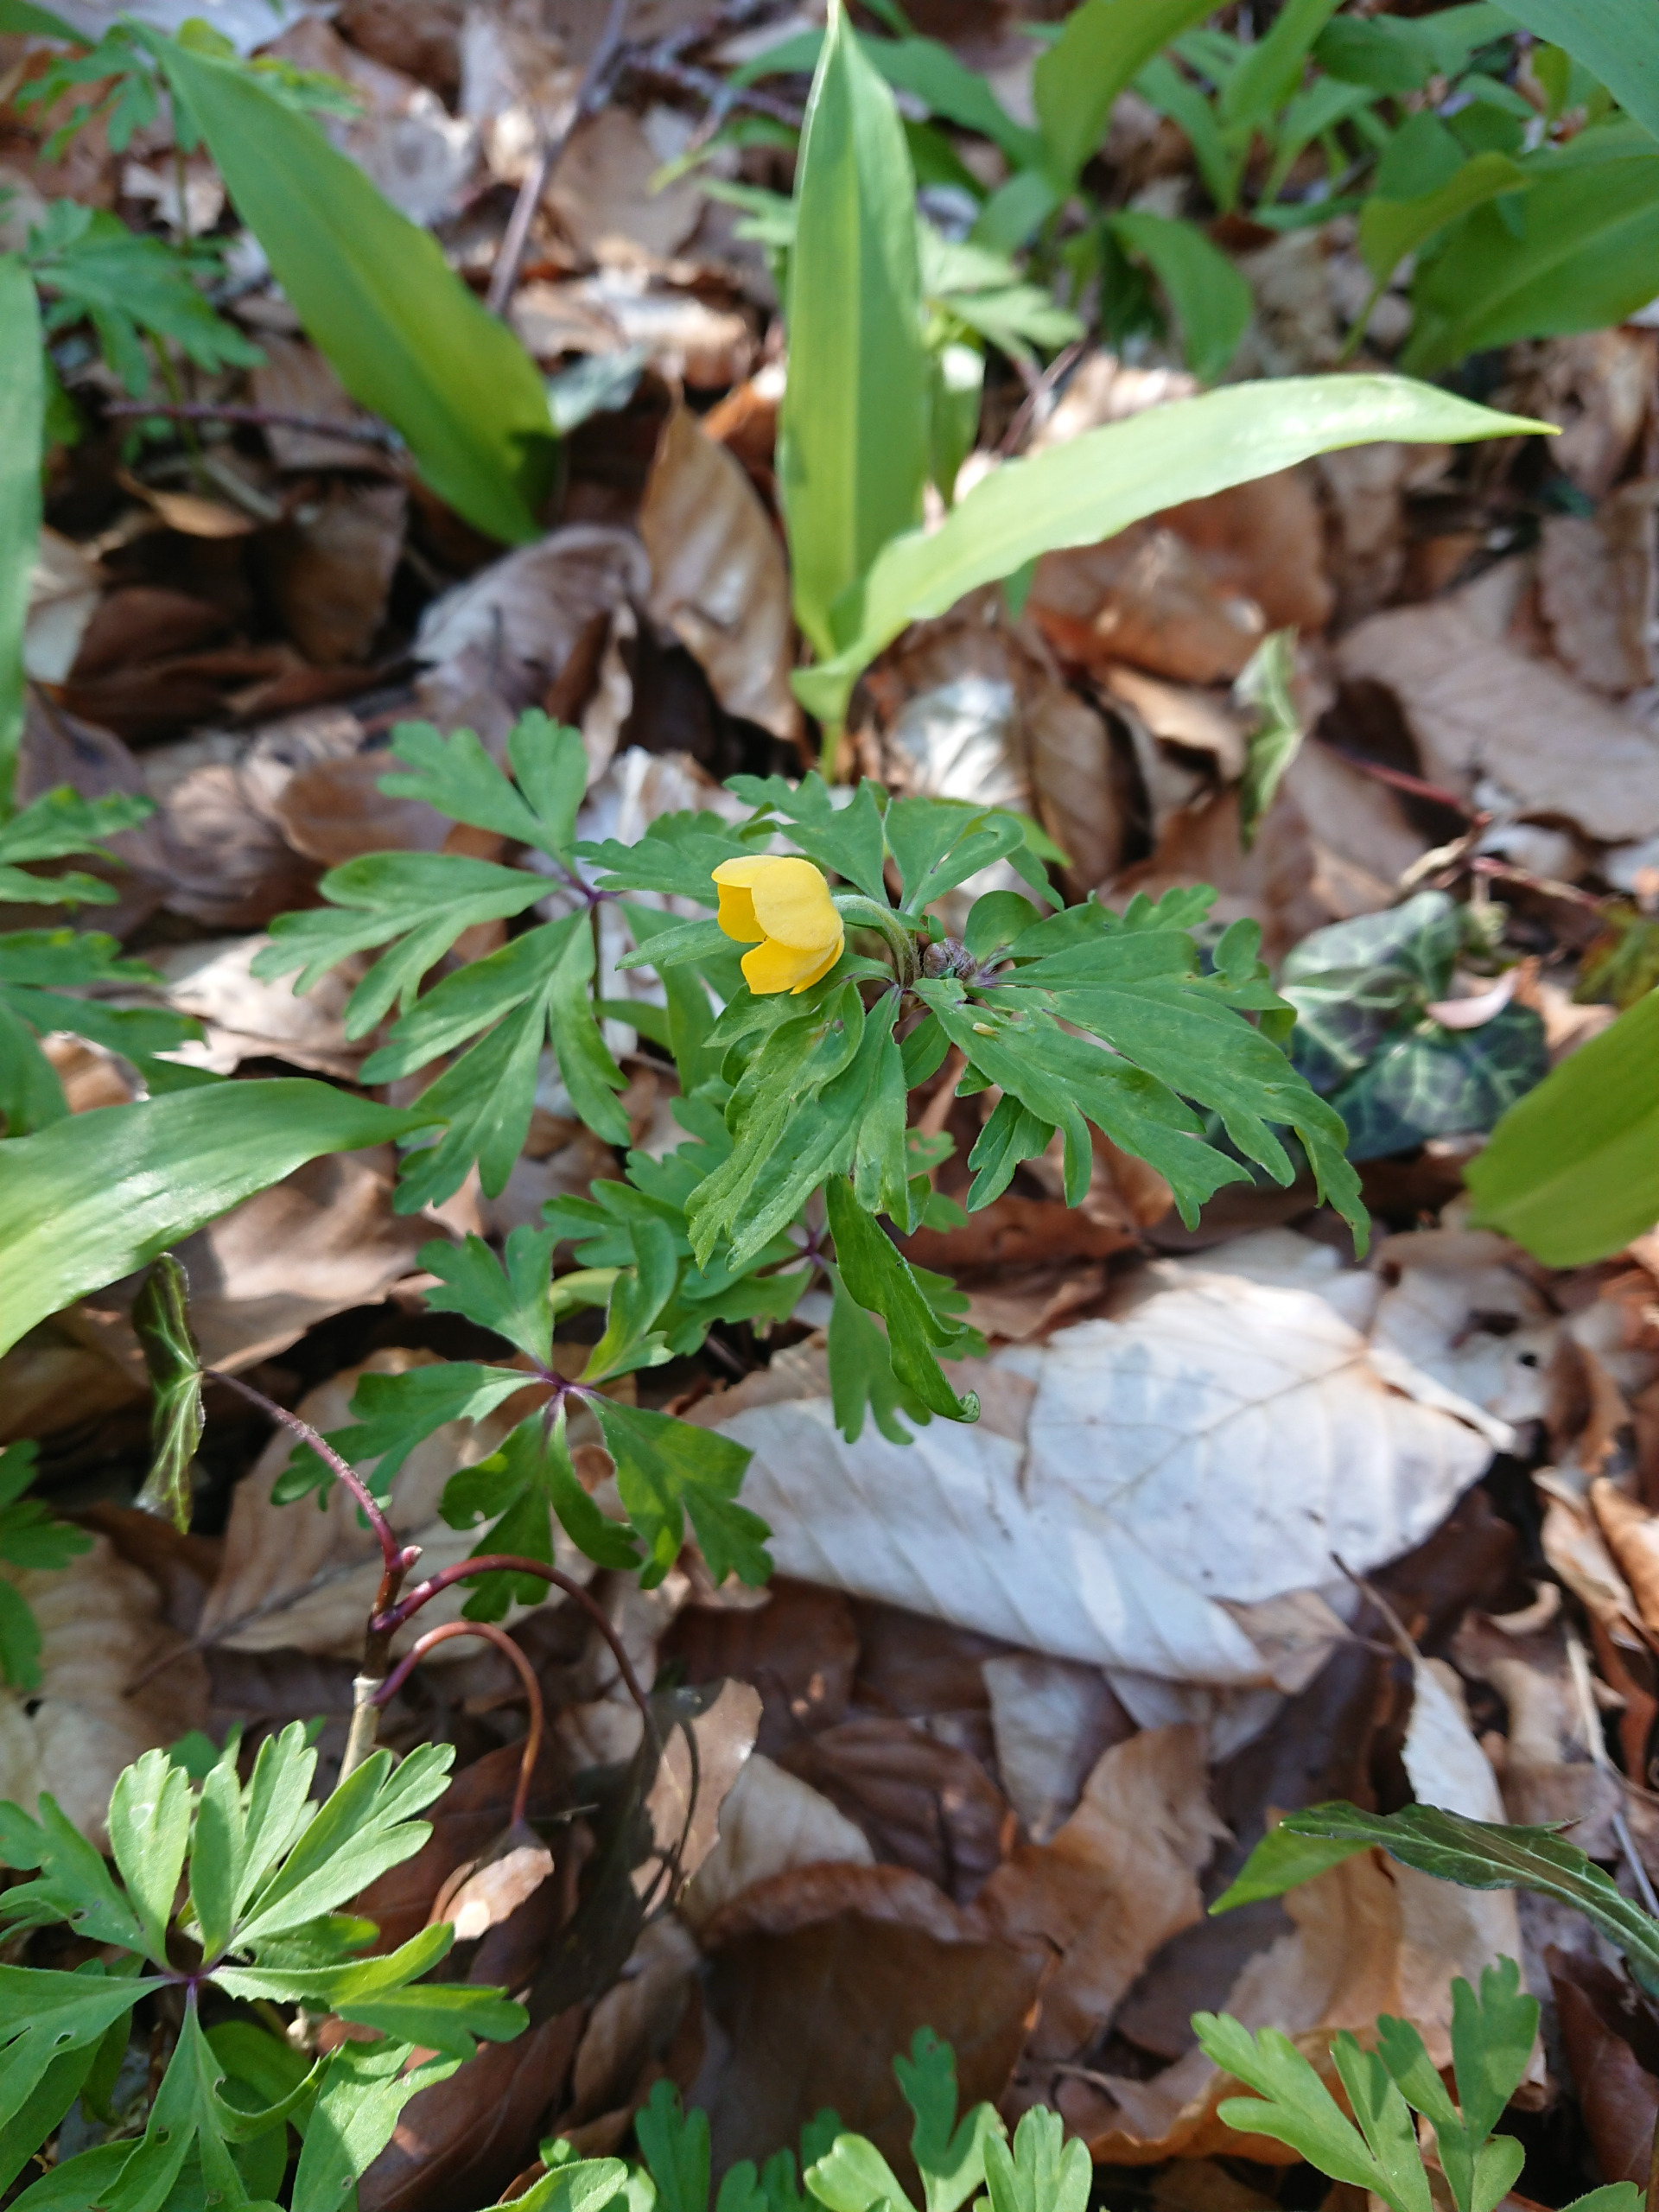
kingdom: Plantae
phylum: Tracheophyta
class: Magnoliopsida
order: Ranunculales
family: Ranunculaceae
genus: Anemone
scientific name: Anemone ranunculoides
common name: Gul anemone
